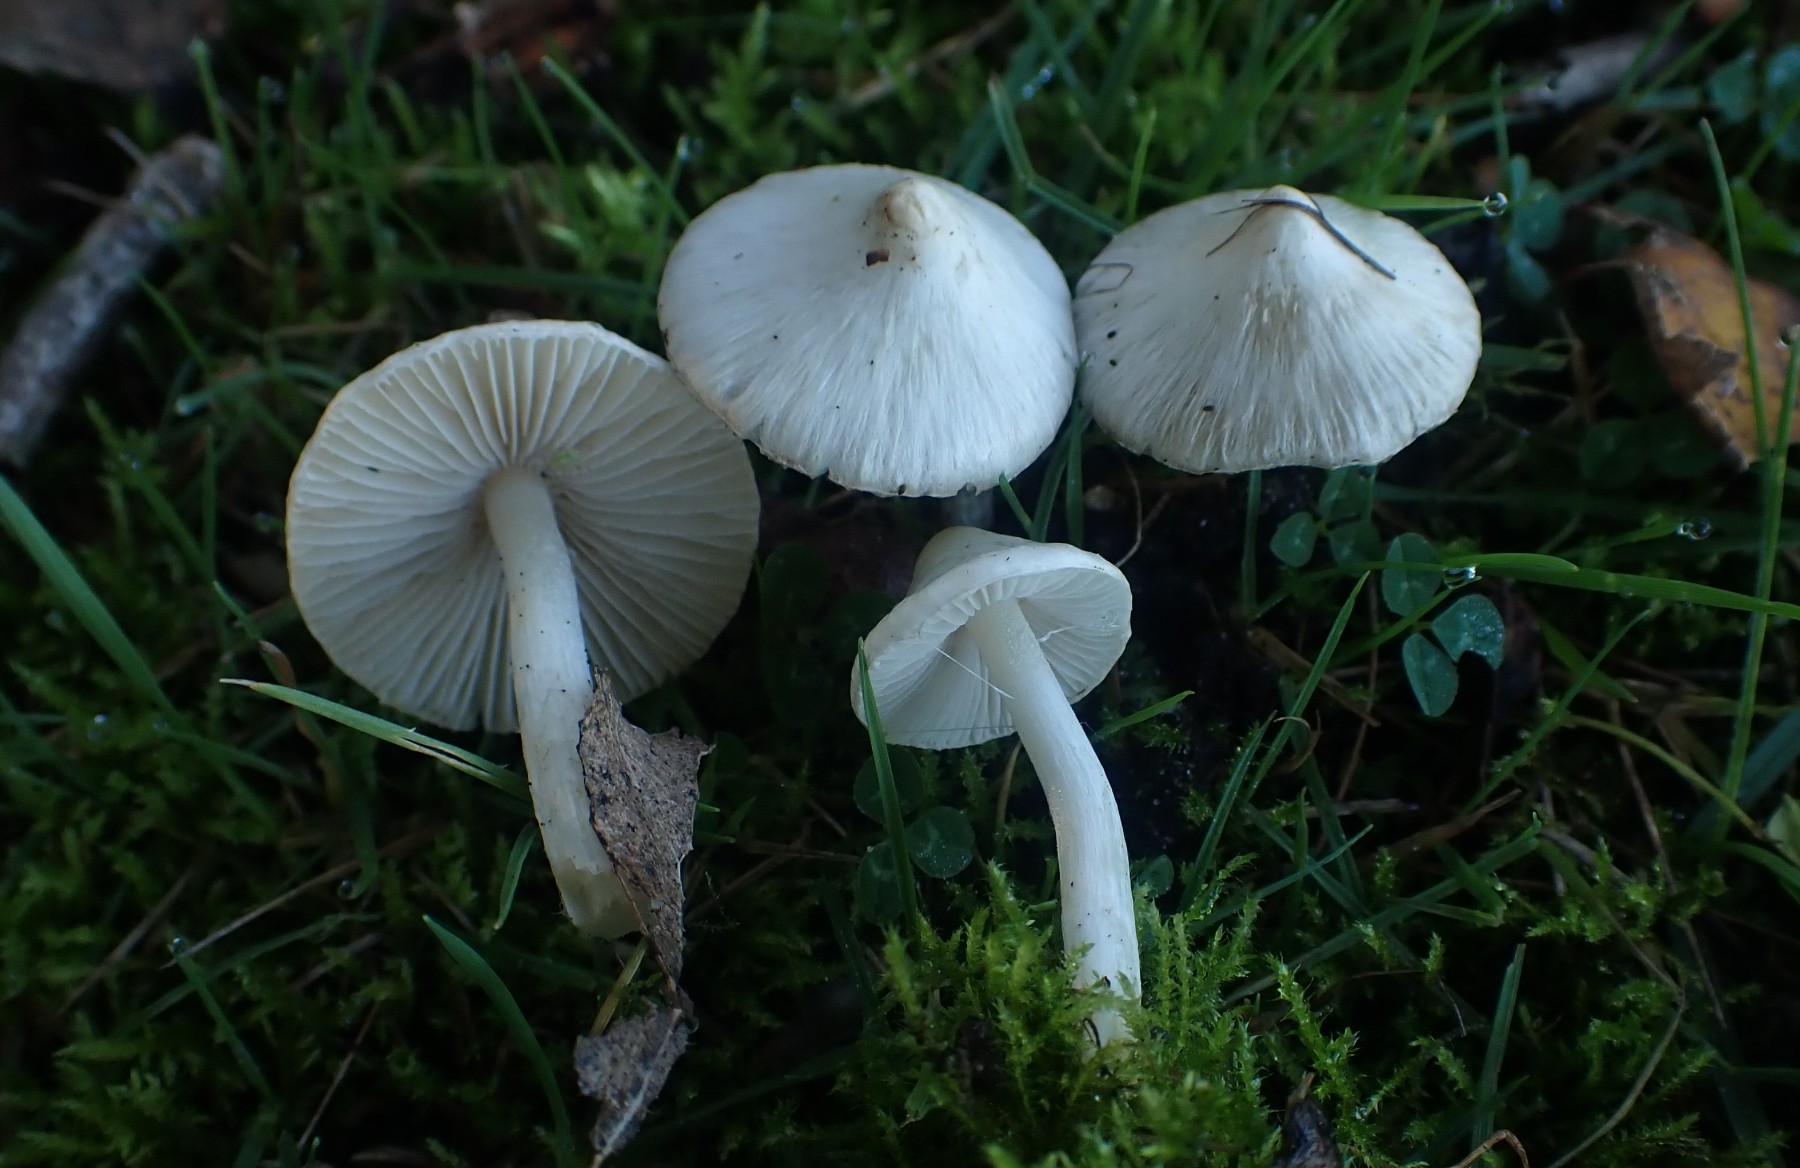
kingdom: Fungi
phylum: Basidiomycota
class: Agaricomycetes
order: Agaricales
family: Inocybaceae
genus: Inocybe
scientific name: Inocybe
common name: almindelig trævlhat
